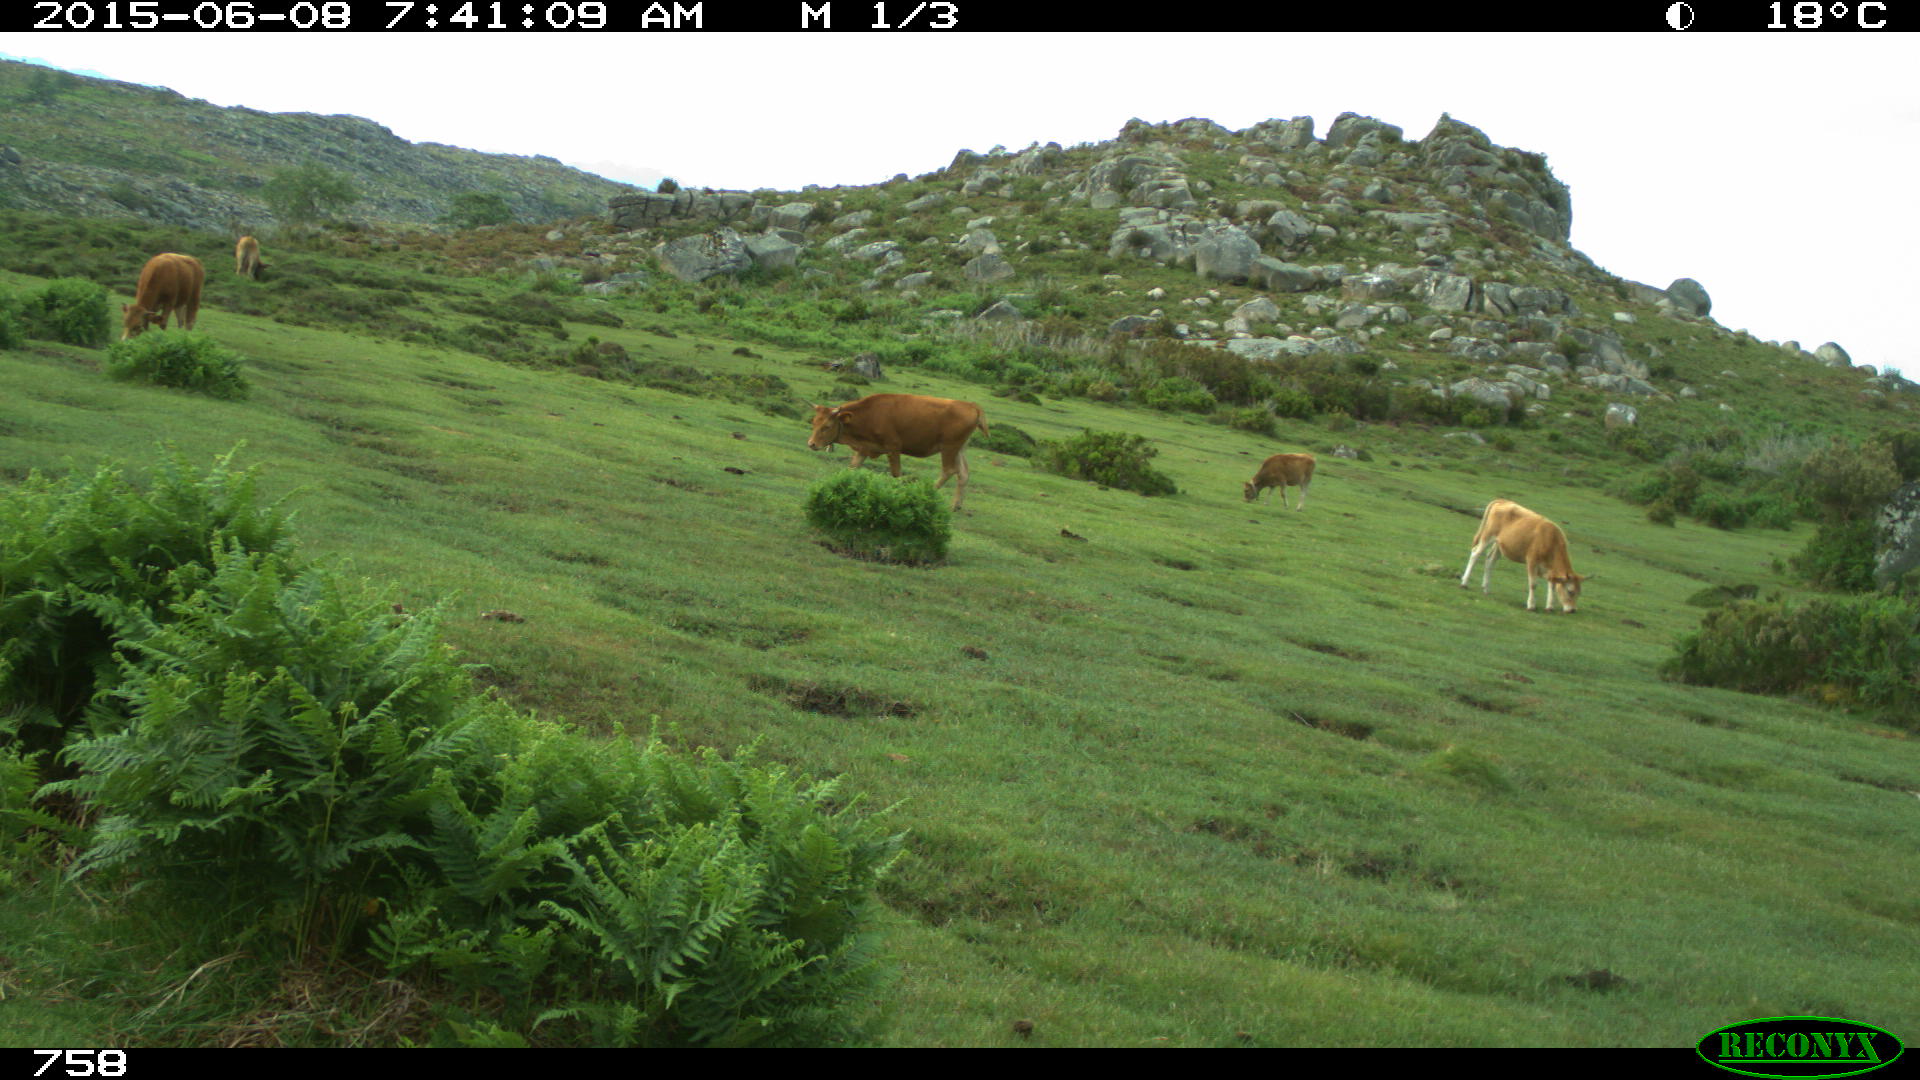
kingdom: Animalia
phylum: Chordata
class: Mammalia
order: Artiodactyla
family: Bovidae
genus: Bos
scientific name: Bos taurus
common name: Domesticated cattle
